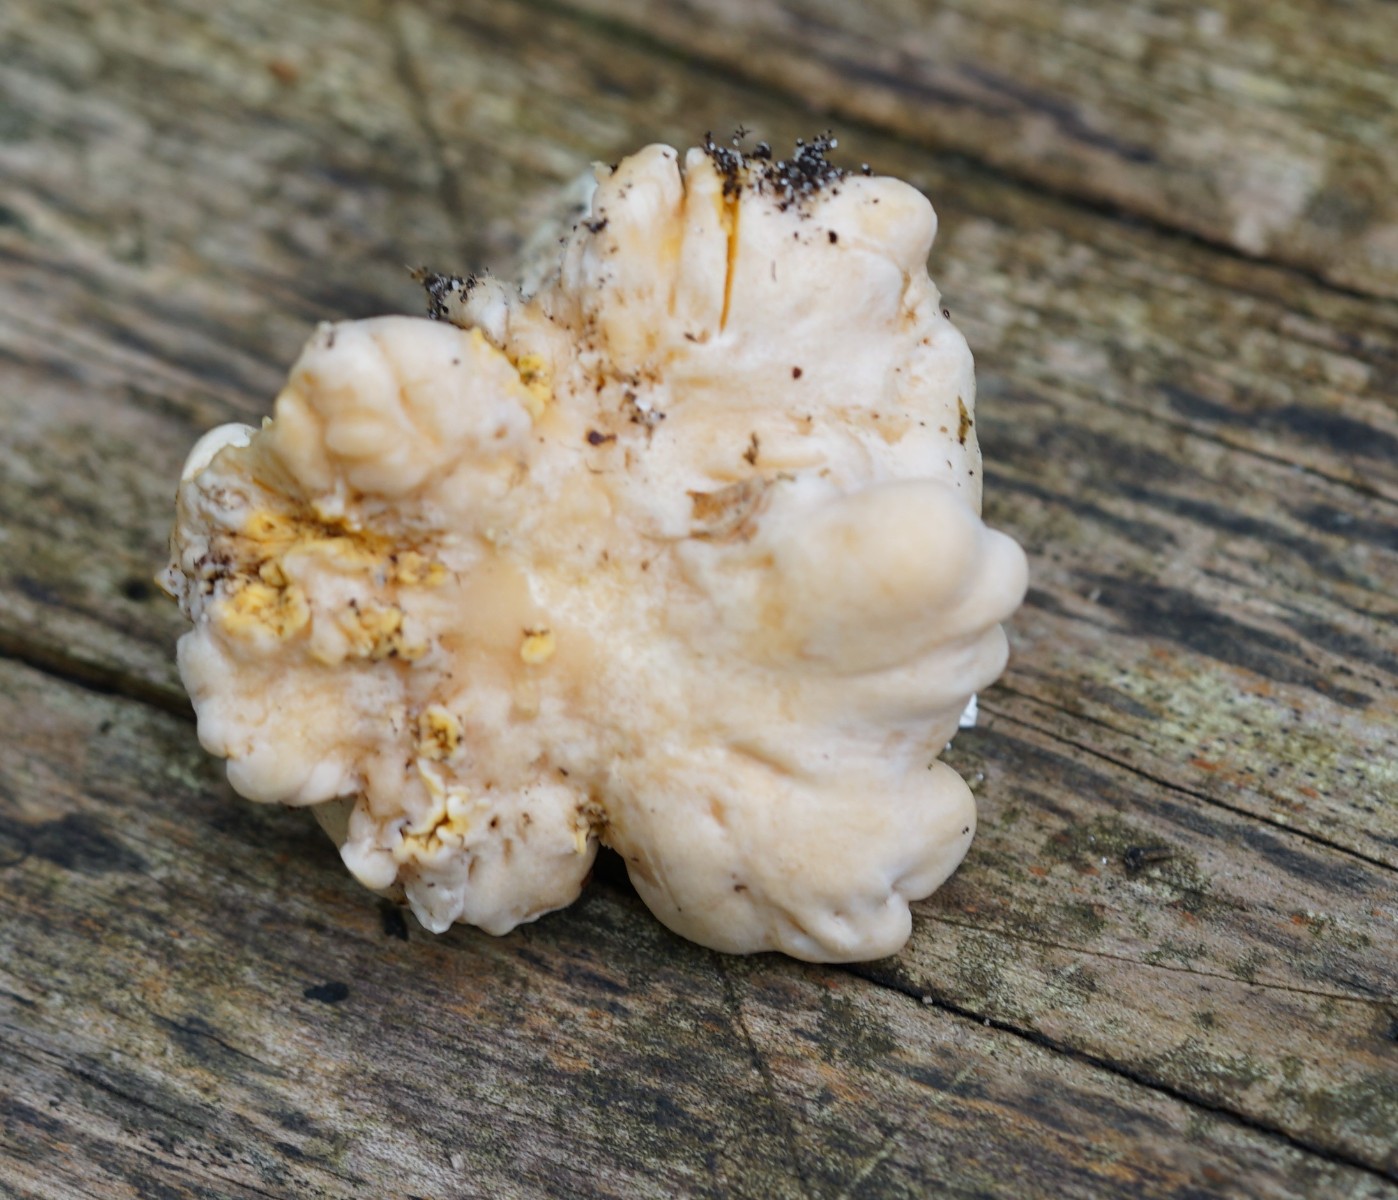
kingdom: Fungi
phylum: Basidiomycota
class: Agaricomycetes
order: Cantharellales
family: Hydnaceae
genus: Cantharellus
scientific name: Cantharellus pallens
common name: bleg kantarel
